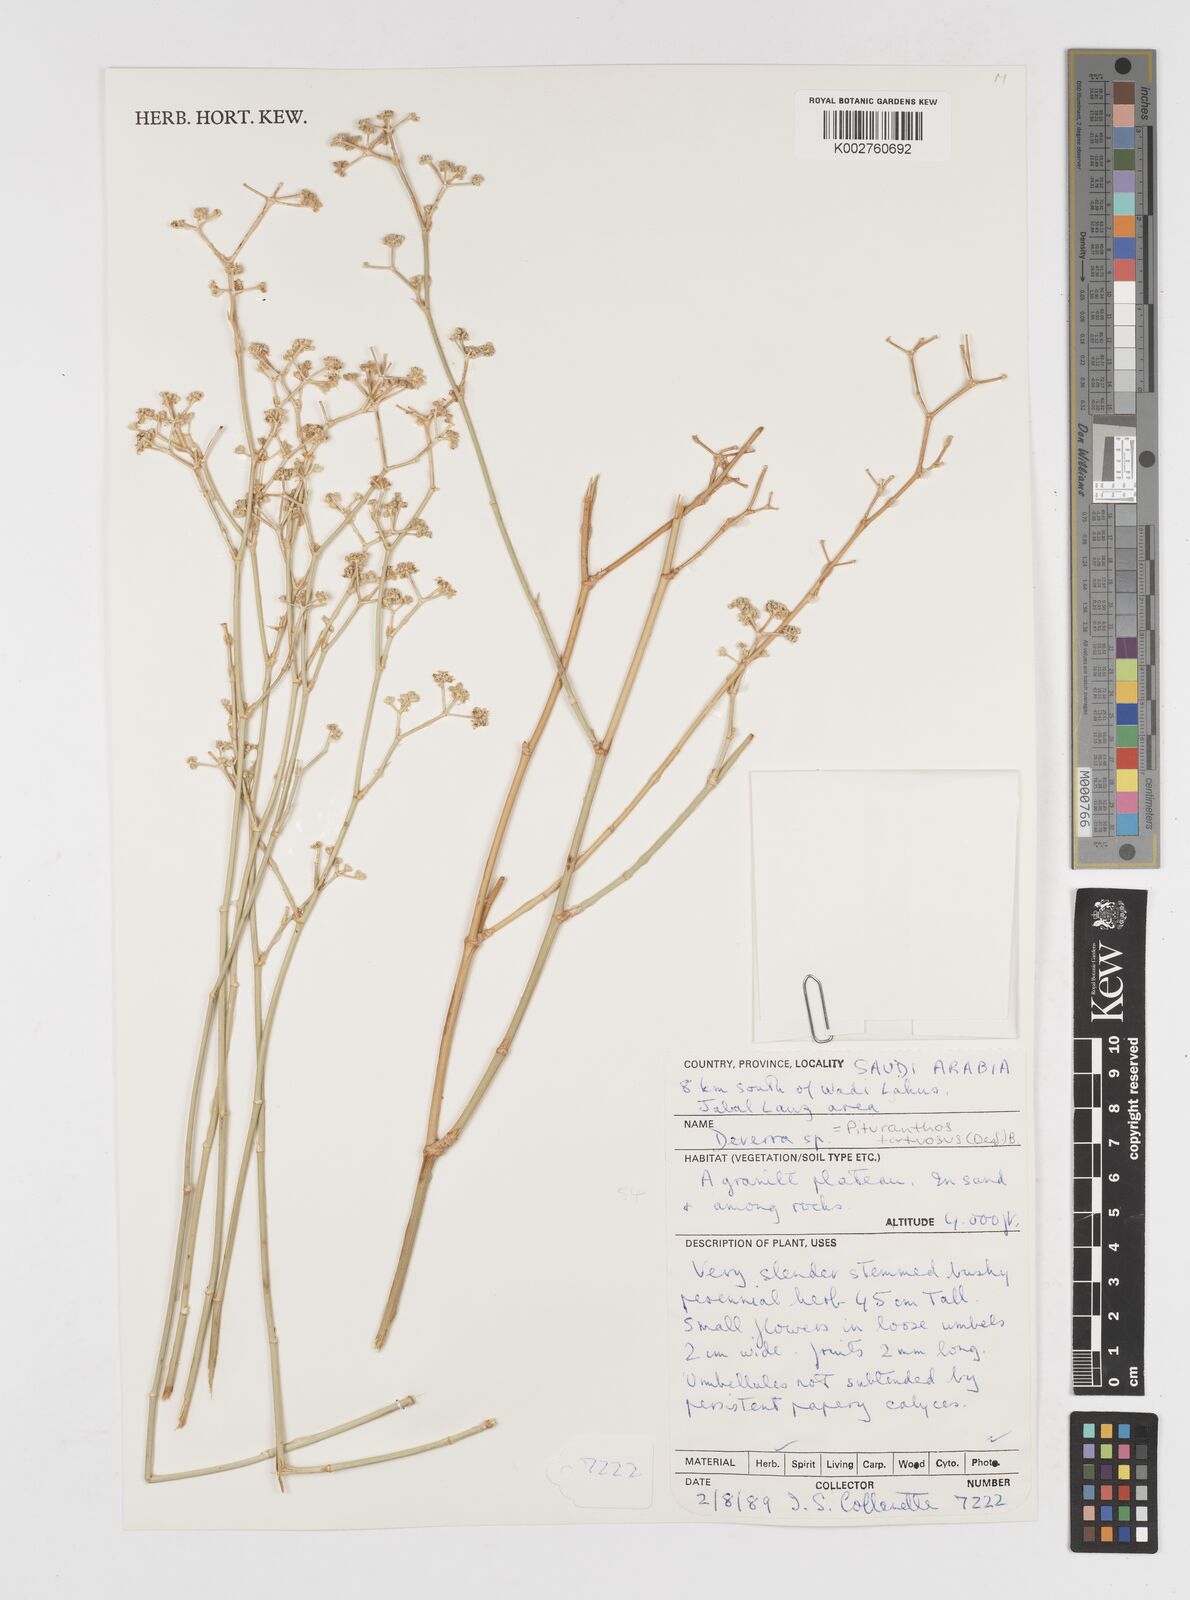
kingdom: Plantae
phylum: Tracheophyta
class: Magnoliopsida
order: Apiales
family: Apiaceae
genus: Deverra
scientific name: Deverra tortuosa
